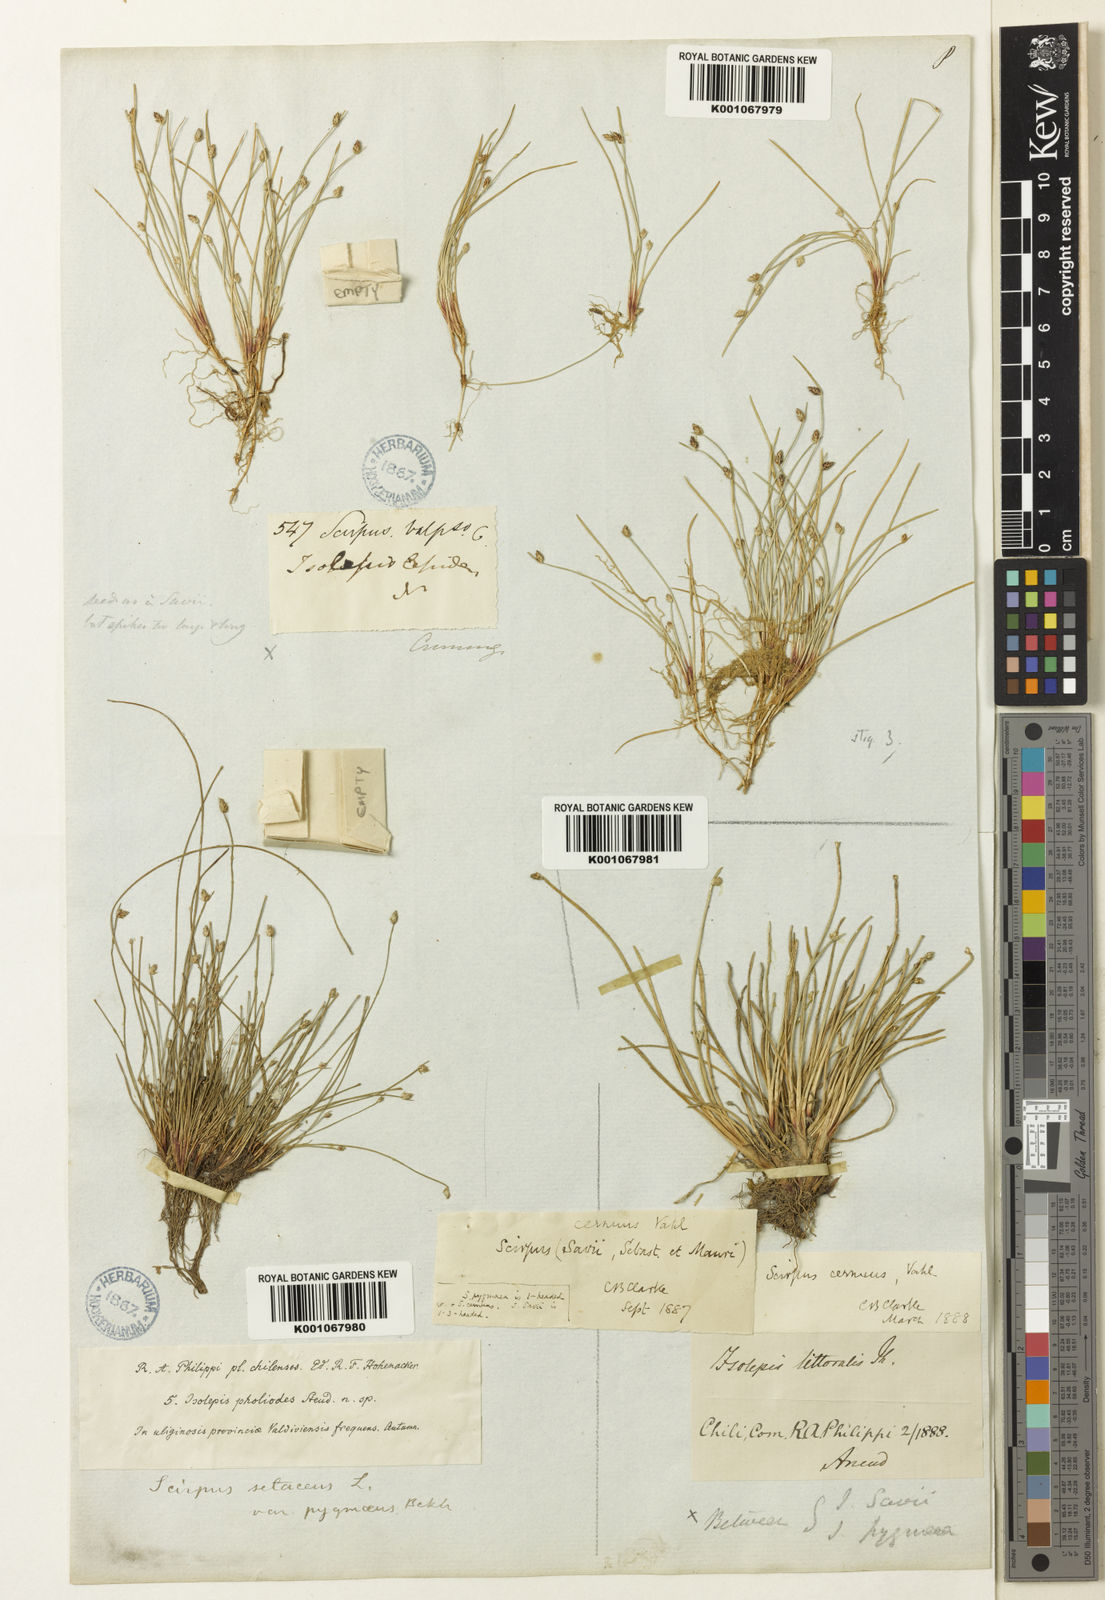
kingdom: Plantae
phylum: Tracheophyta
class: Liliopsida
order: Poales
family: Cyperaceae
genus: Isolepis
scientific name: Isolepis ranko
